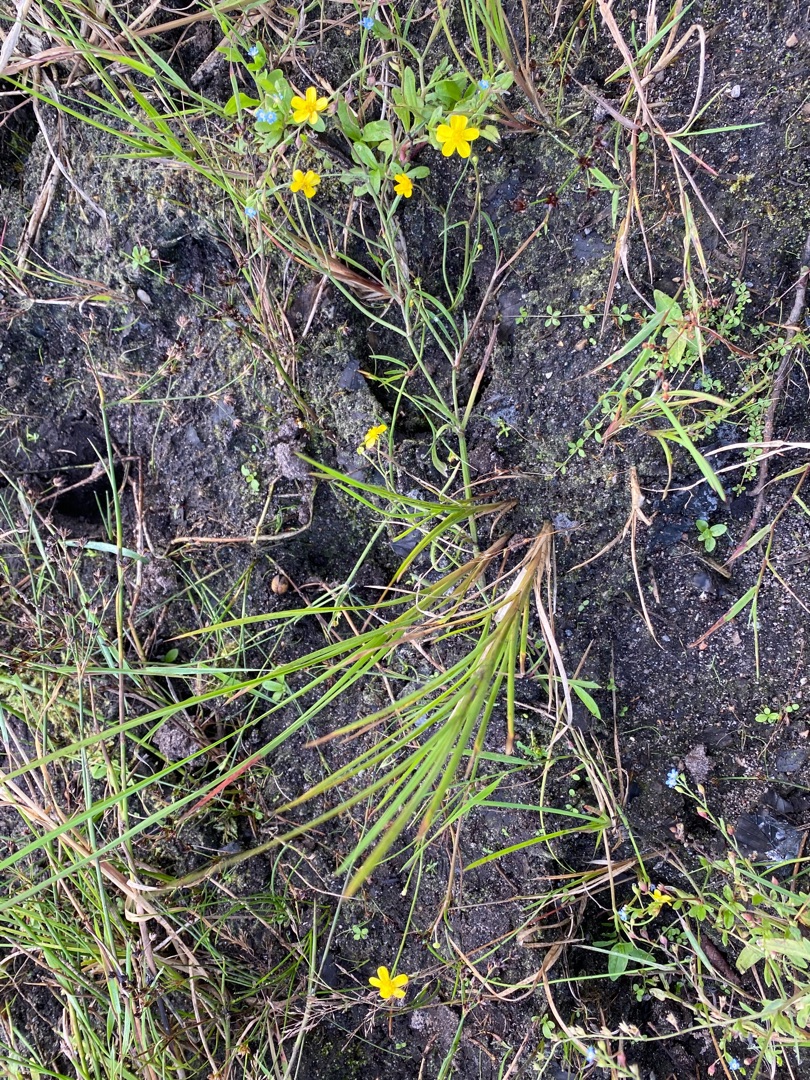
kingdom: Plantae
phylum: Tracheophyta
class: Magnoliopsida
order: Ranunculales
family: Ranunculaceae
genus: Ranunculus
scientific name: Ranunculus flammula
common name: Kær-ranunkel
